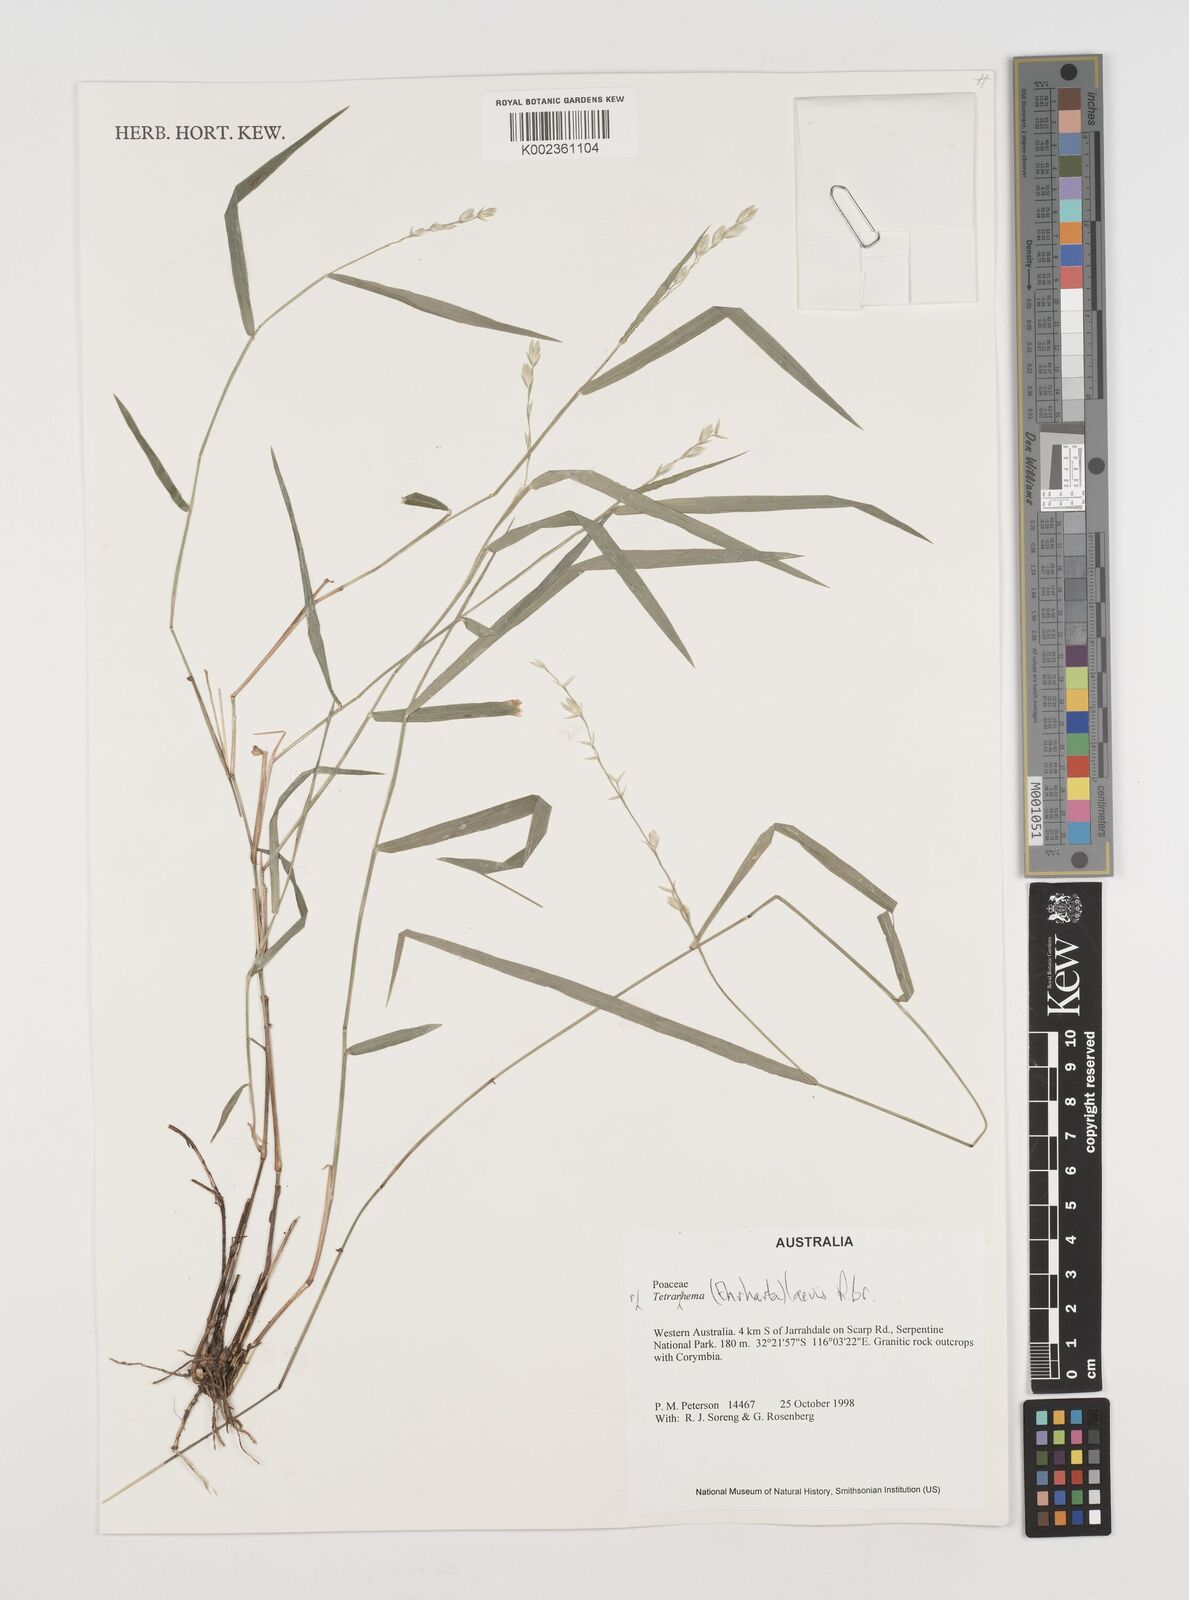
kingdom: Plantae
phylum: Tracheophyta
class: Liliopsida
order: Poales
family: Poaceae
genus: Tetrarrhena
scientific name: Tetrarrhena laevis
